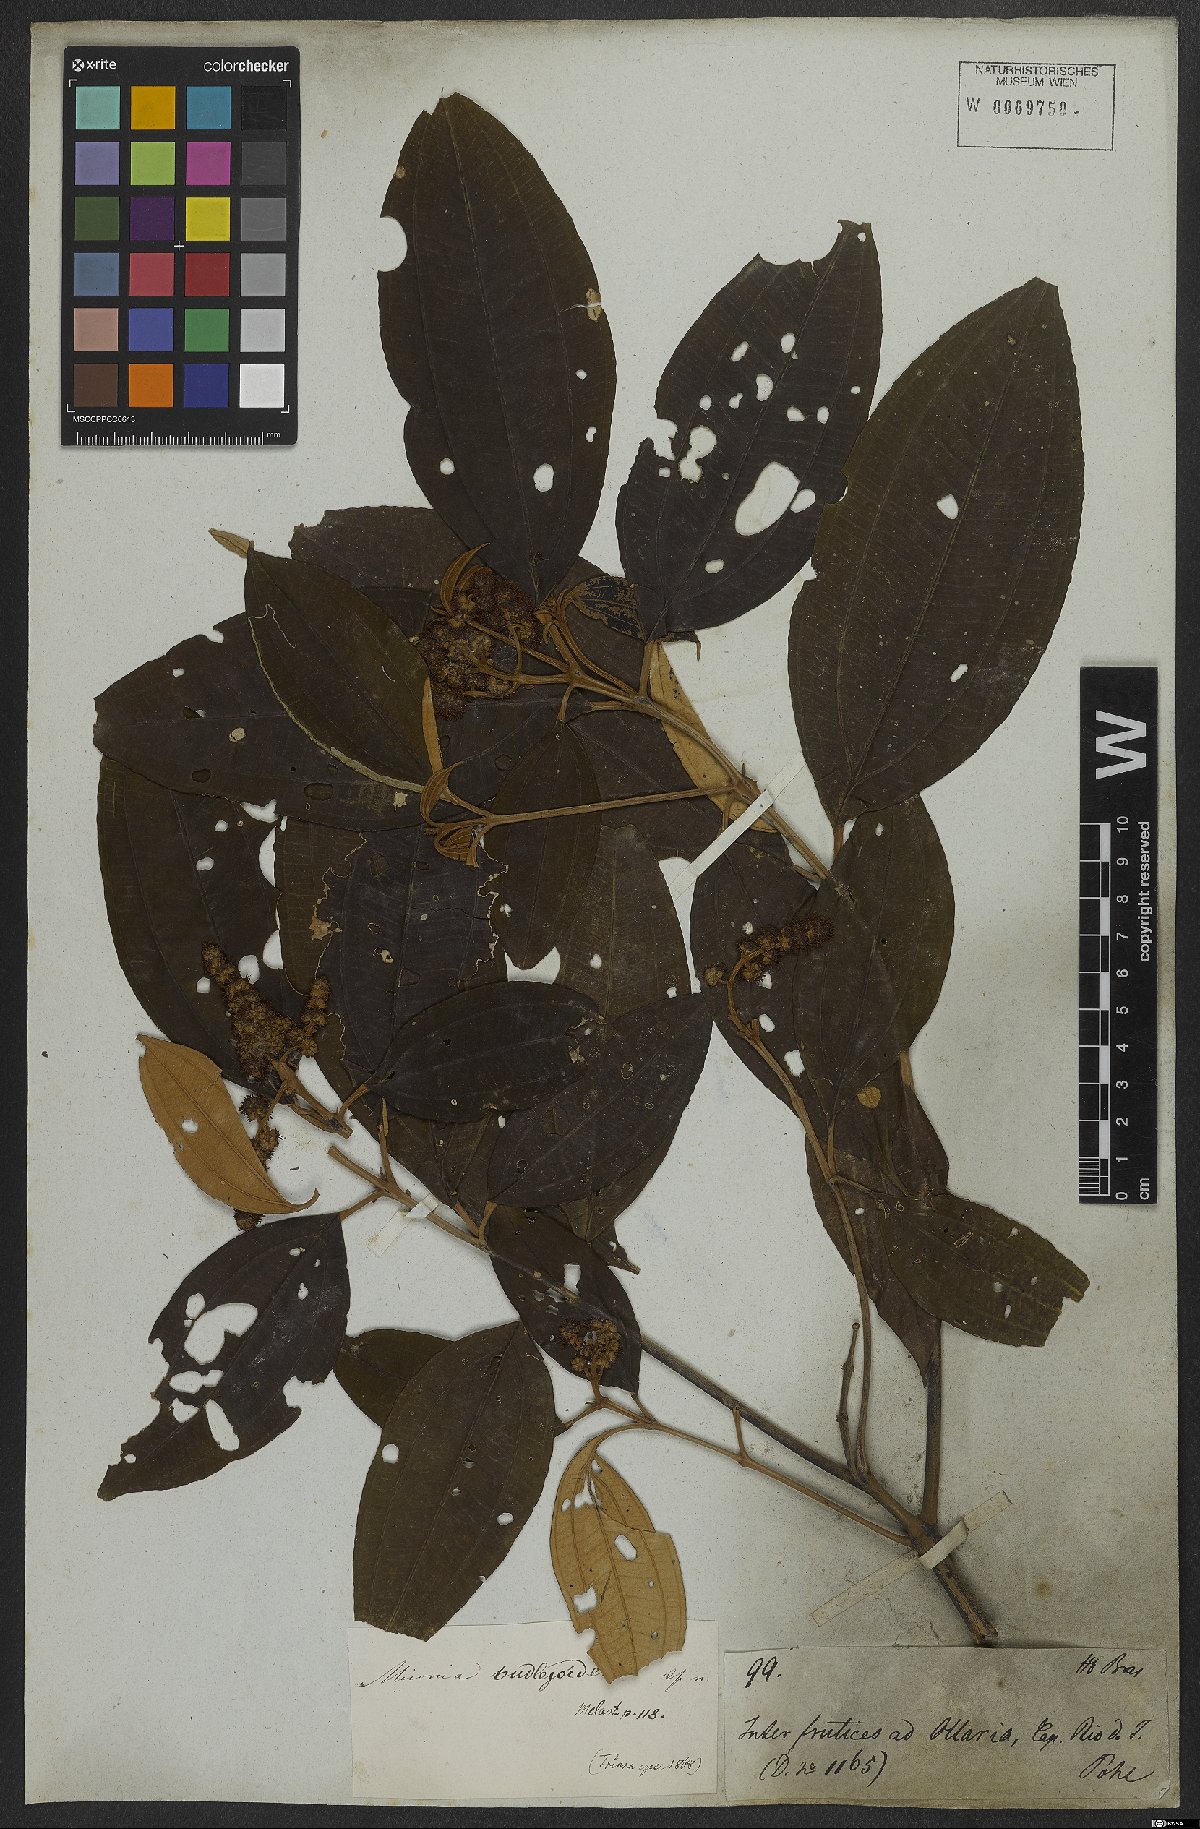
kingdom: Plantae
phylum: Tracheophyta
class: Magnoliopsida
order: Myrtales
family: Melastomataceae
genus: Miconia
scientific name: Miconia buddlejoides
